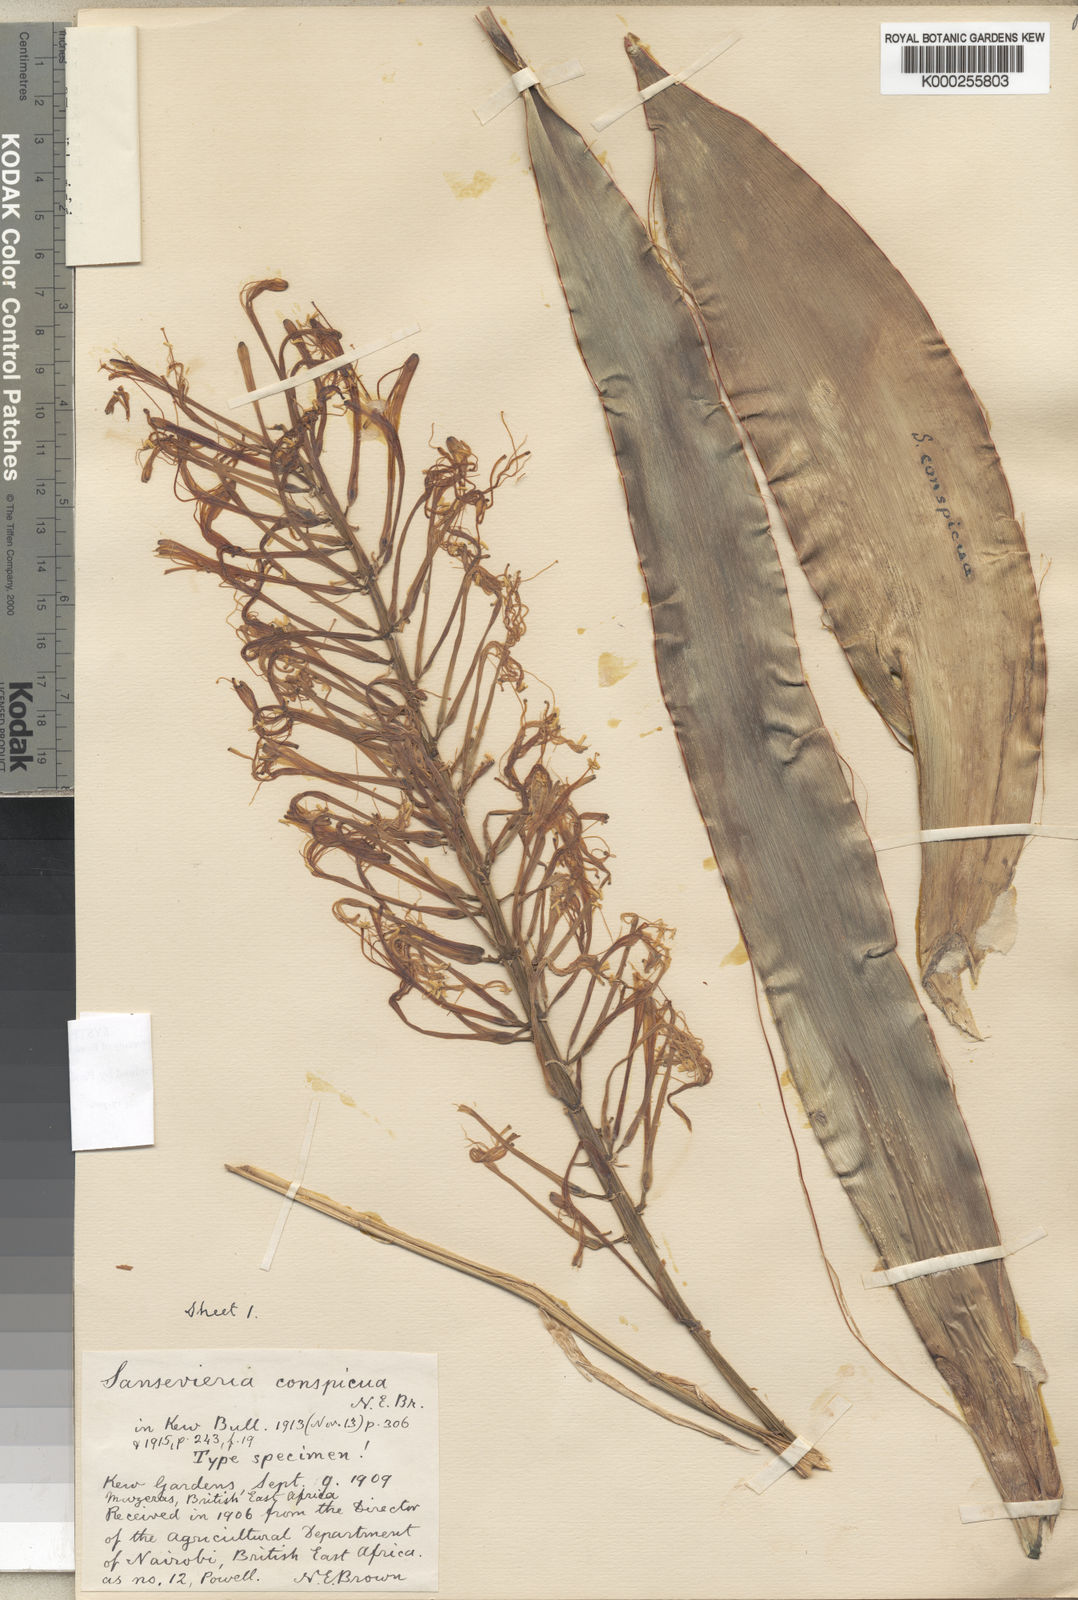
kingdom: Plantae
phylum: Tracheophyta
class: Liliopsida
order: Asparagales
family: Asparagaceae
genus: Dracaena
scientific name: Dracaena conspicua
